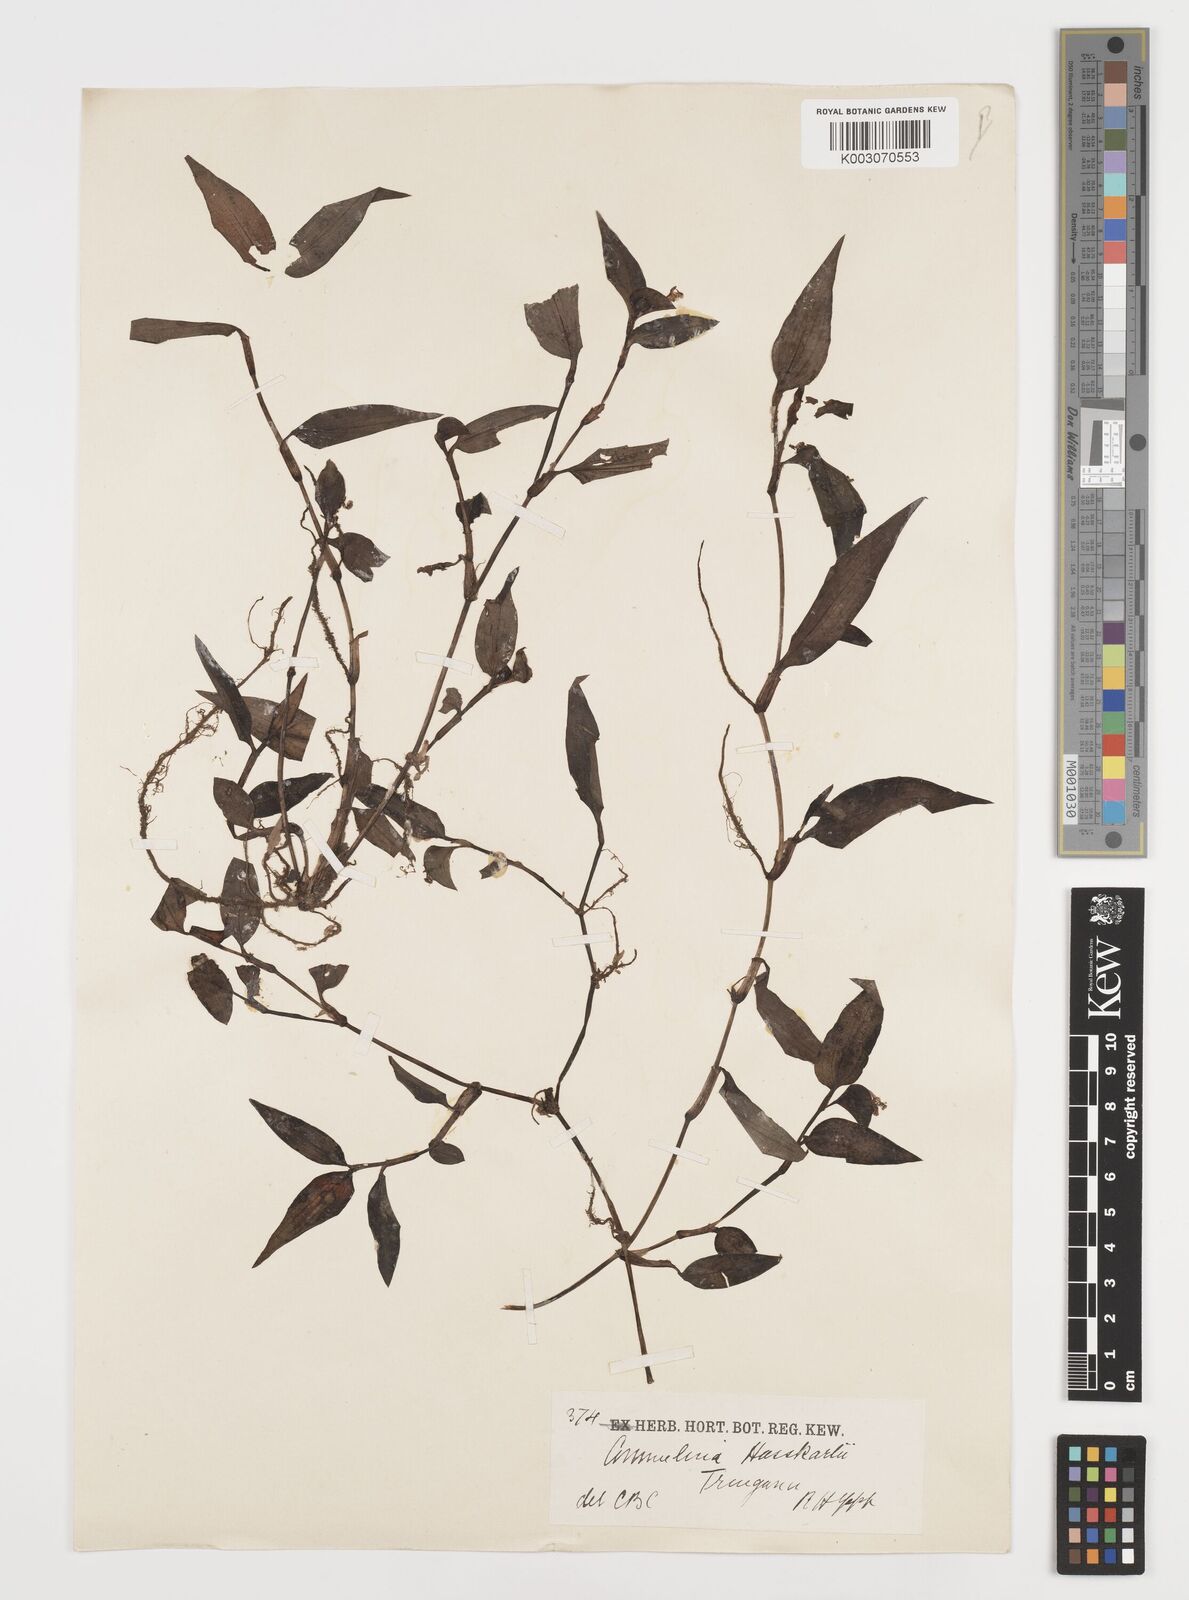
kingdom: Plantae
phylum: Tracheophyta
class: Liliopsida
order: Commelinales
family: Commelinaceae
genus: Commelina
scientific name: Commelina caroliniana
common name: Carolina dayflower
